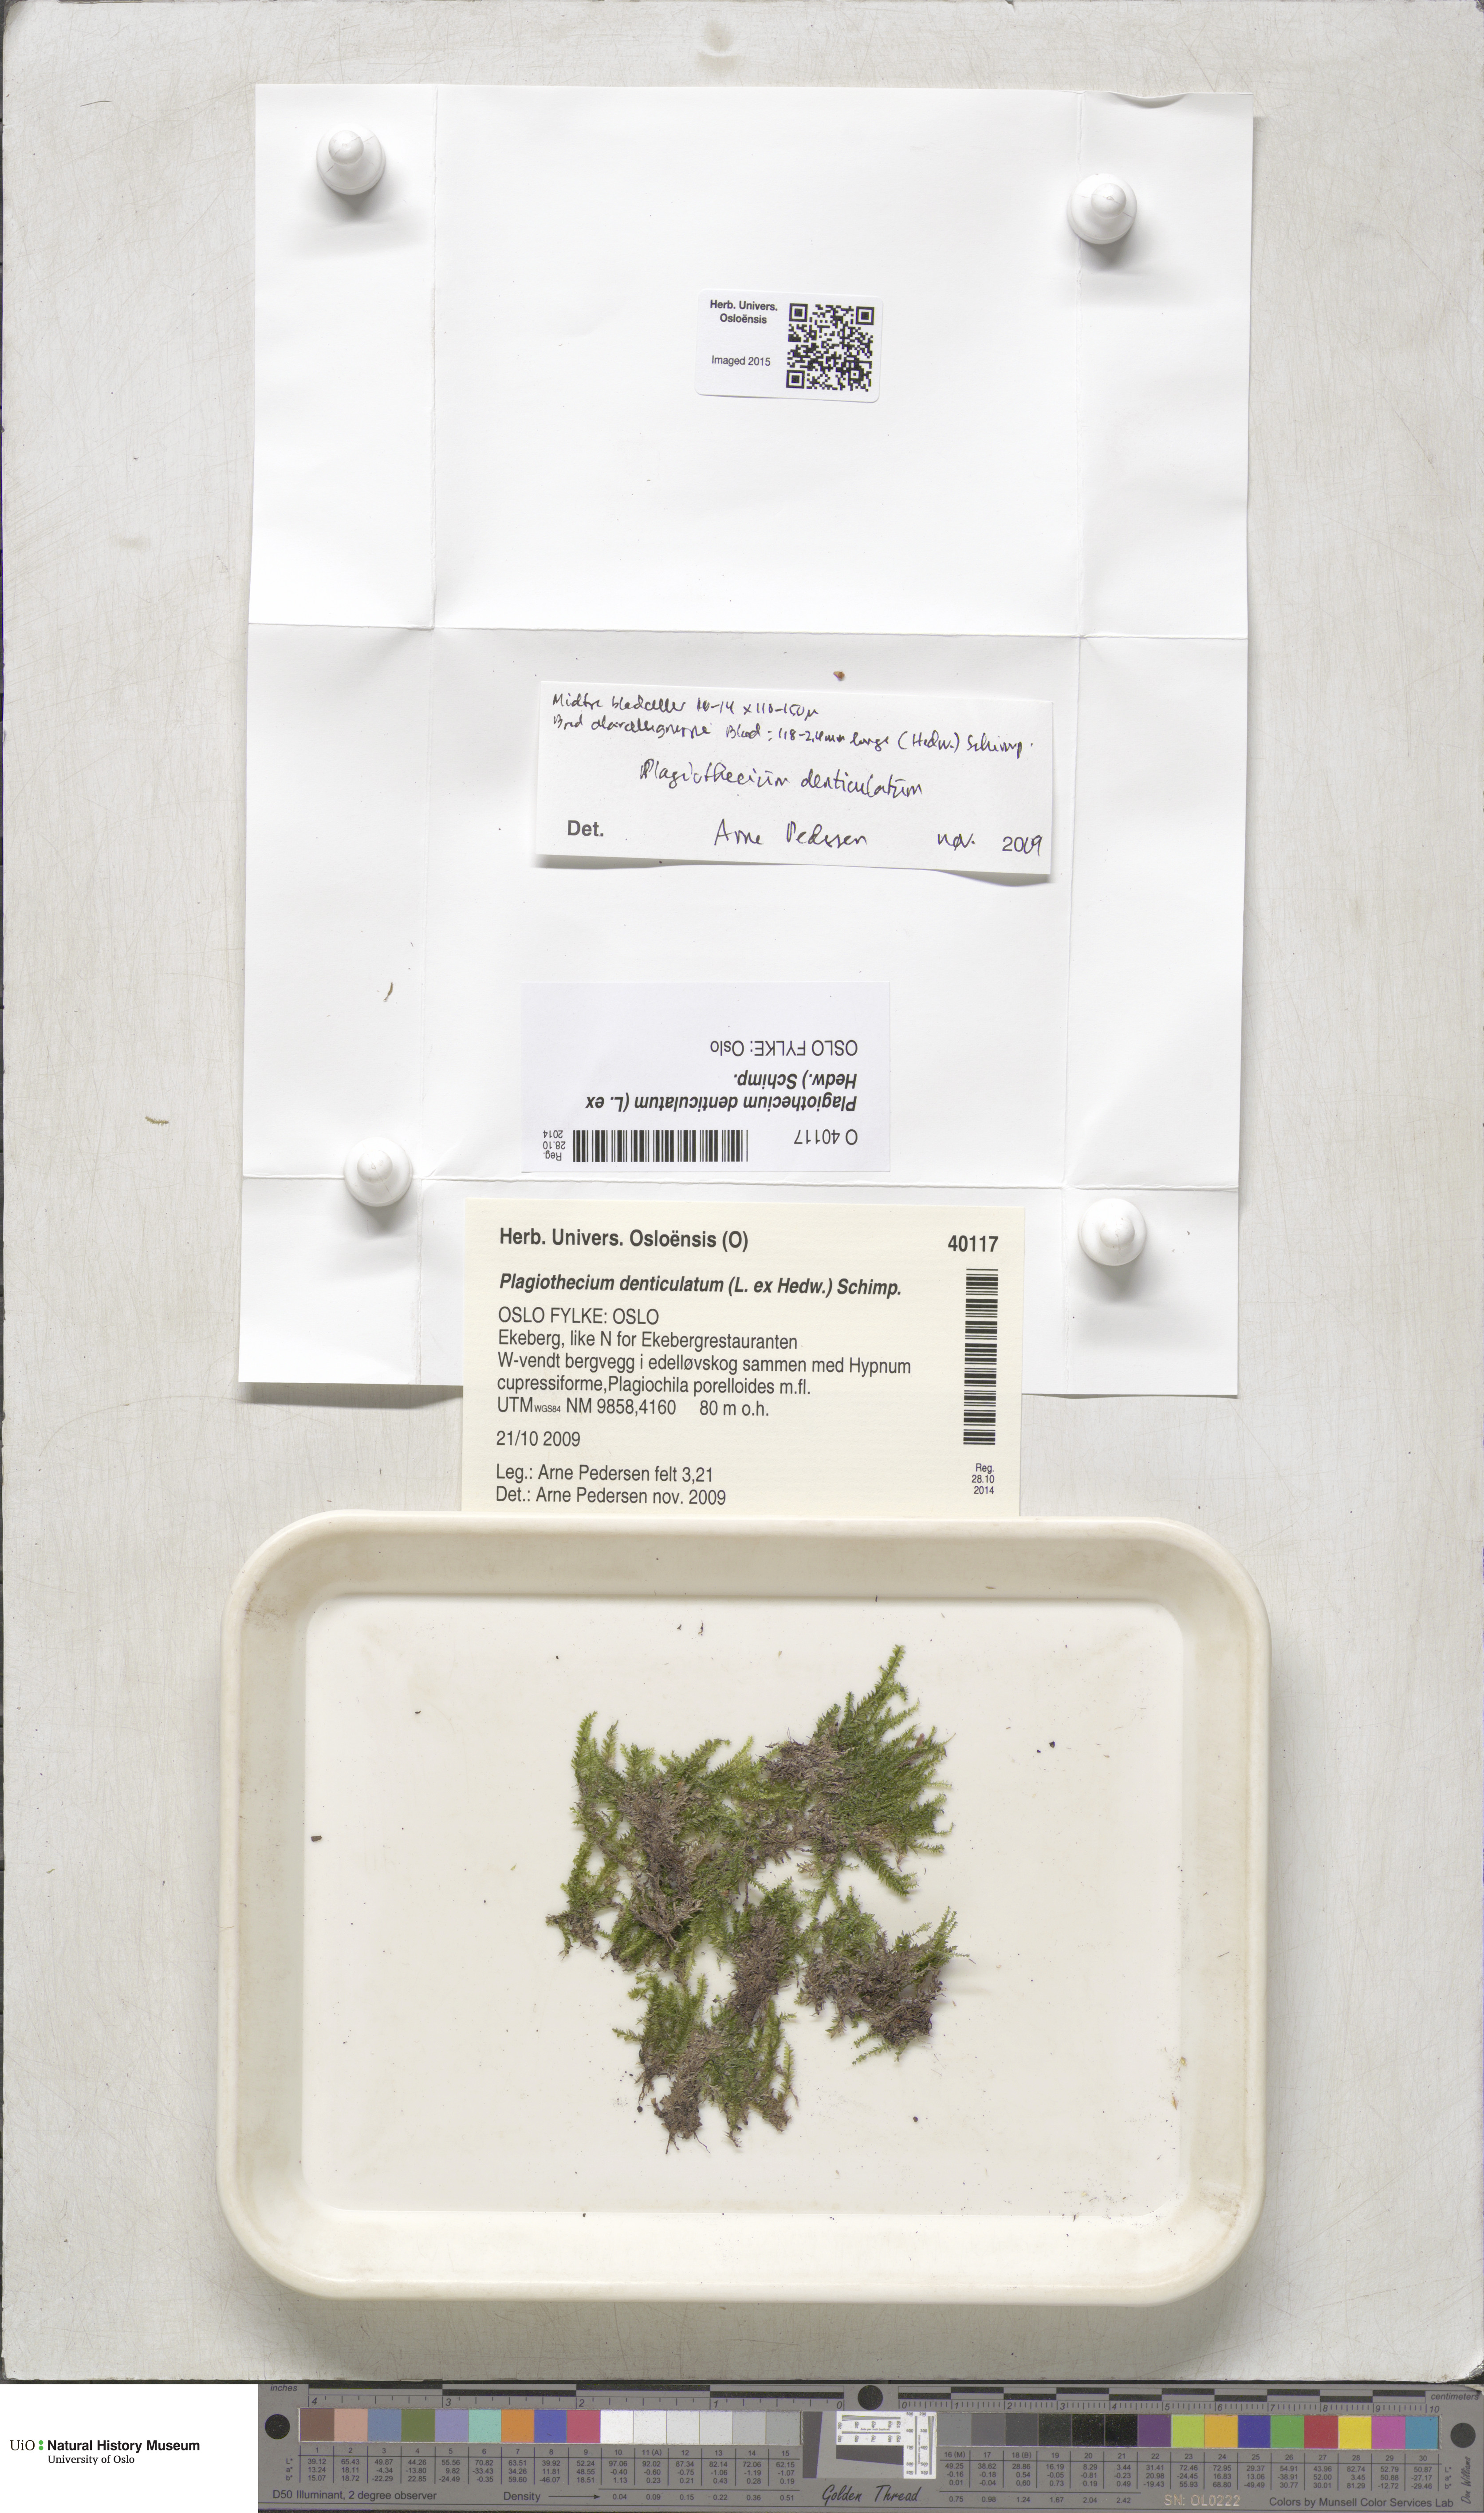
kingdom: Plantae
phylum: Bryophyta
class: Bryopsida
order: Hypnales
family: Plagiotheciaceae
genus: Plagiothecium
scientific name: Plagiothecium denticulatum
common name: Dented silk moss
